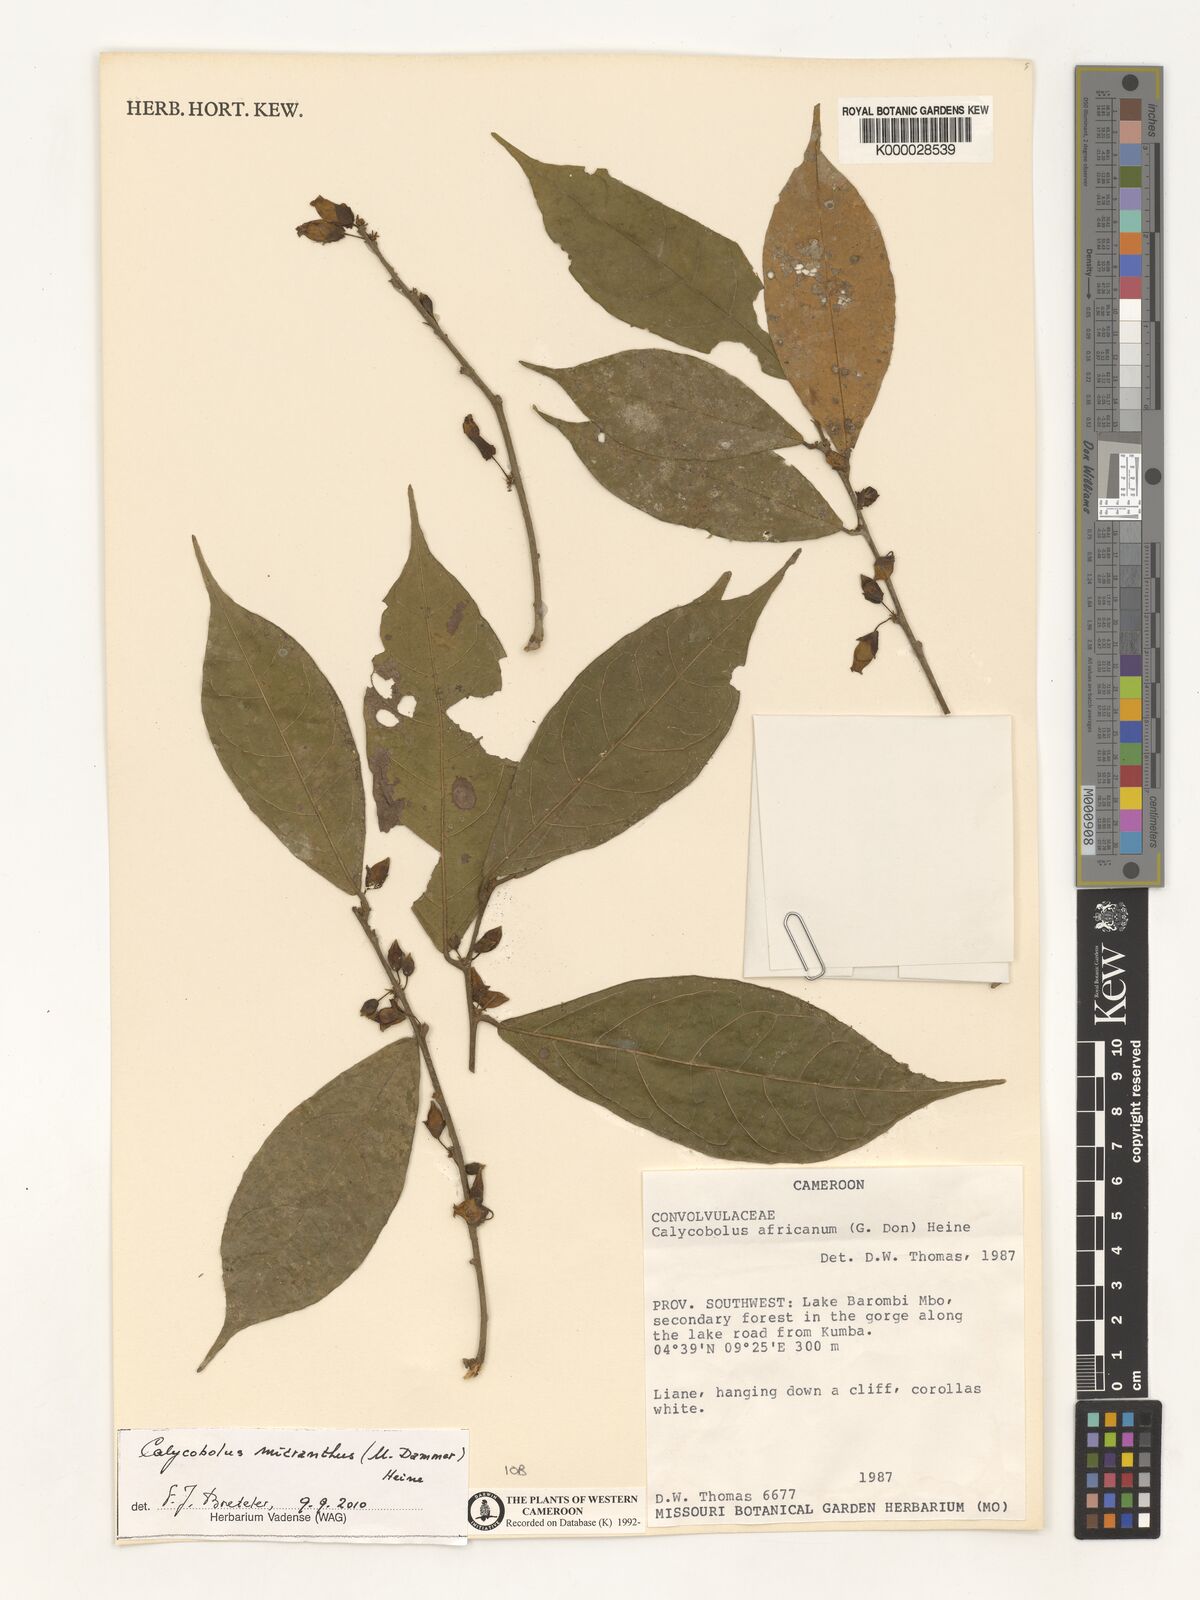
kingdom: Plantae
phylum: Tracheophyta
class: Magnoliopsida
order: Solanales
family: Convolvulaceae
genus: Calycobolus
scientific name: Calycobolus africanus
